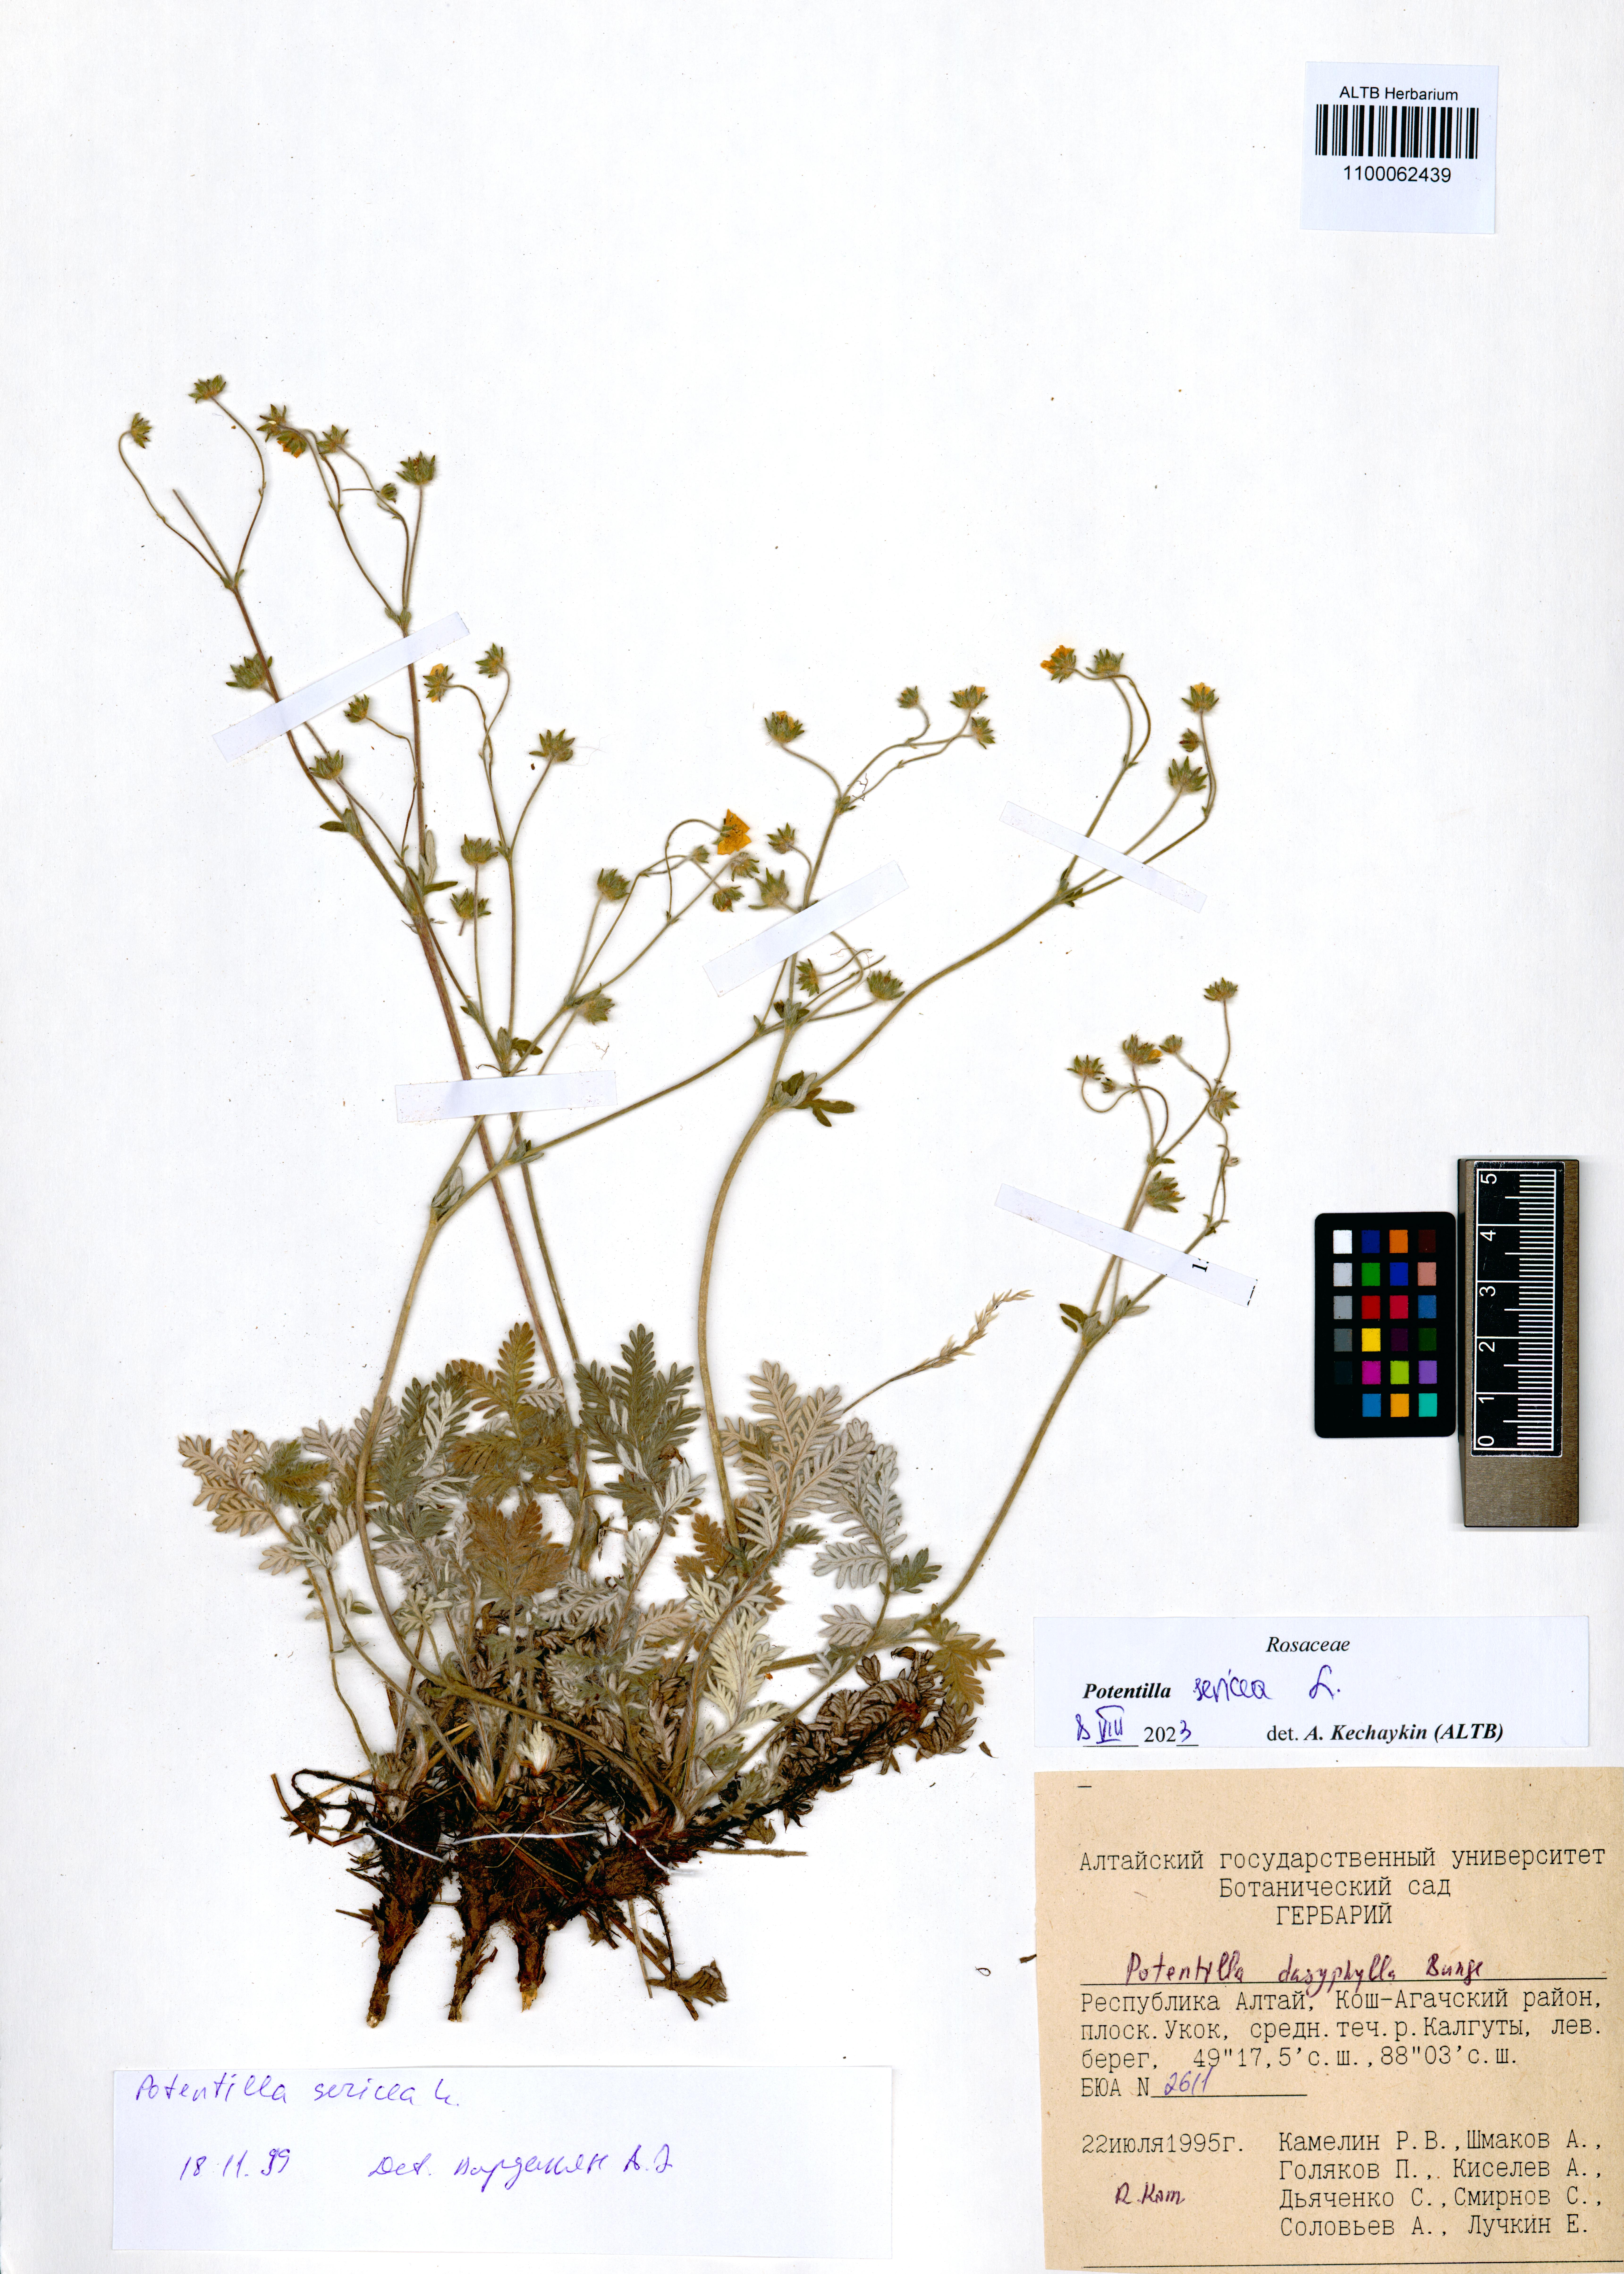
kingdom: Plantae
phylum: Tracheophyta
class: Magnoliopsida
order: Rosales
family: Rosaceae
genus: Potentilla
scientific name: Potentilla sericea
